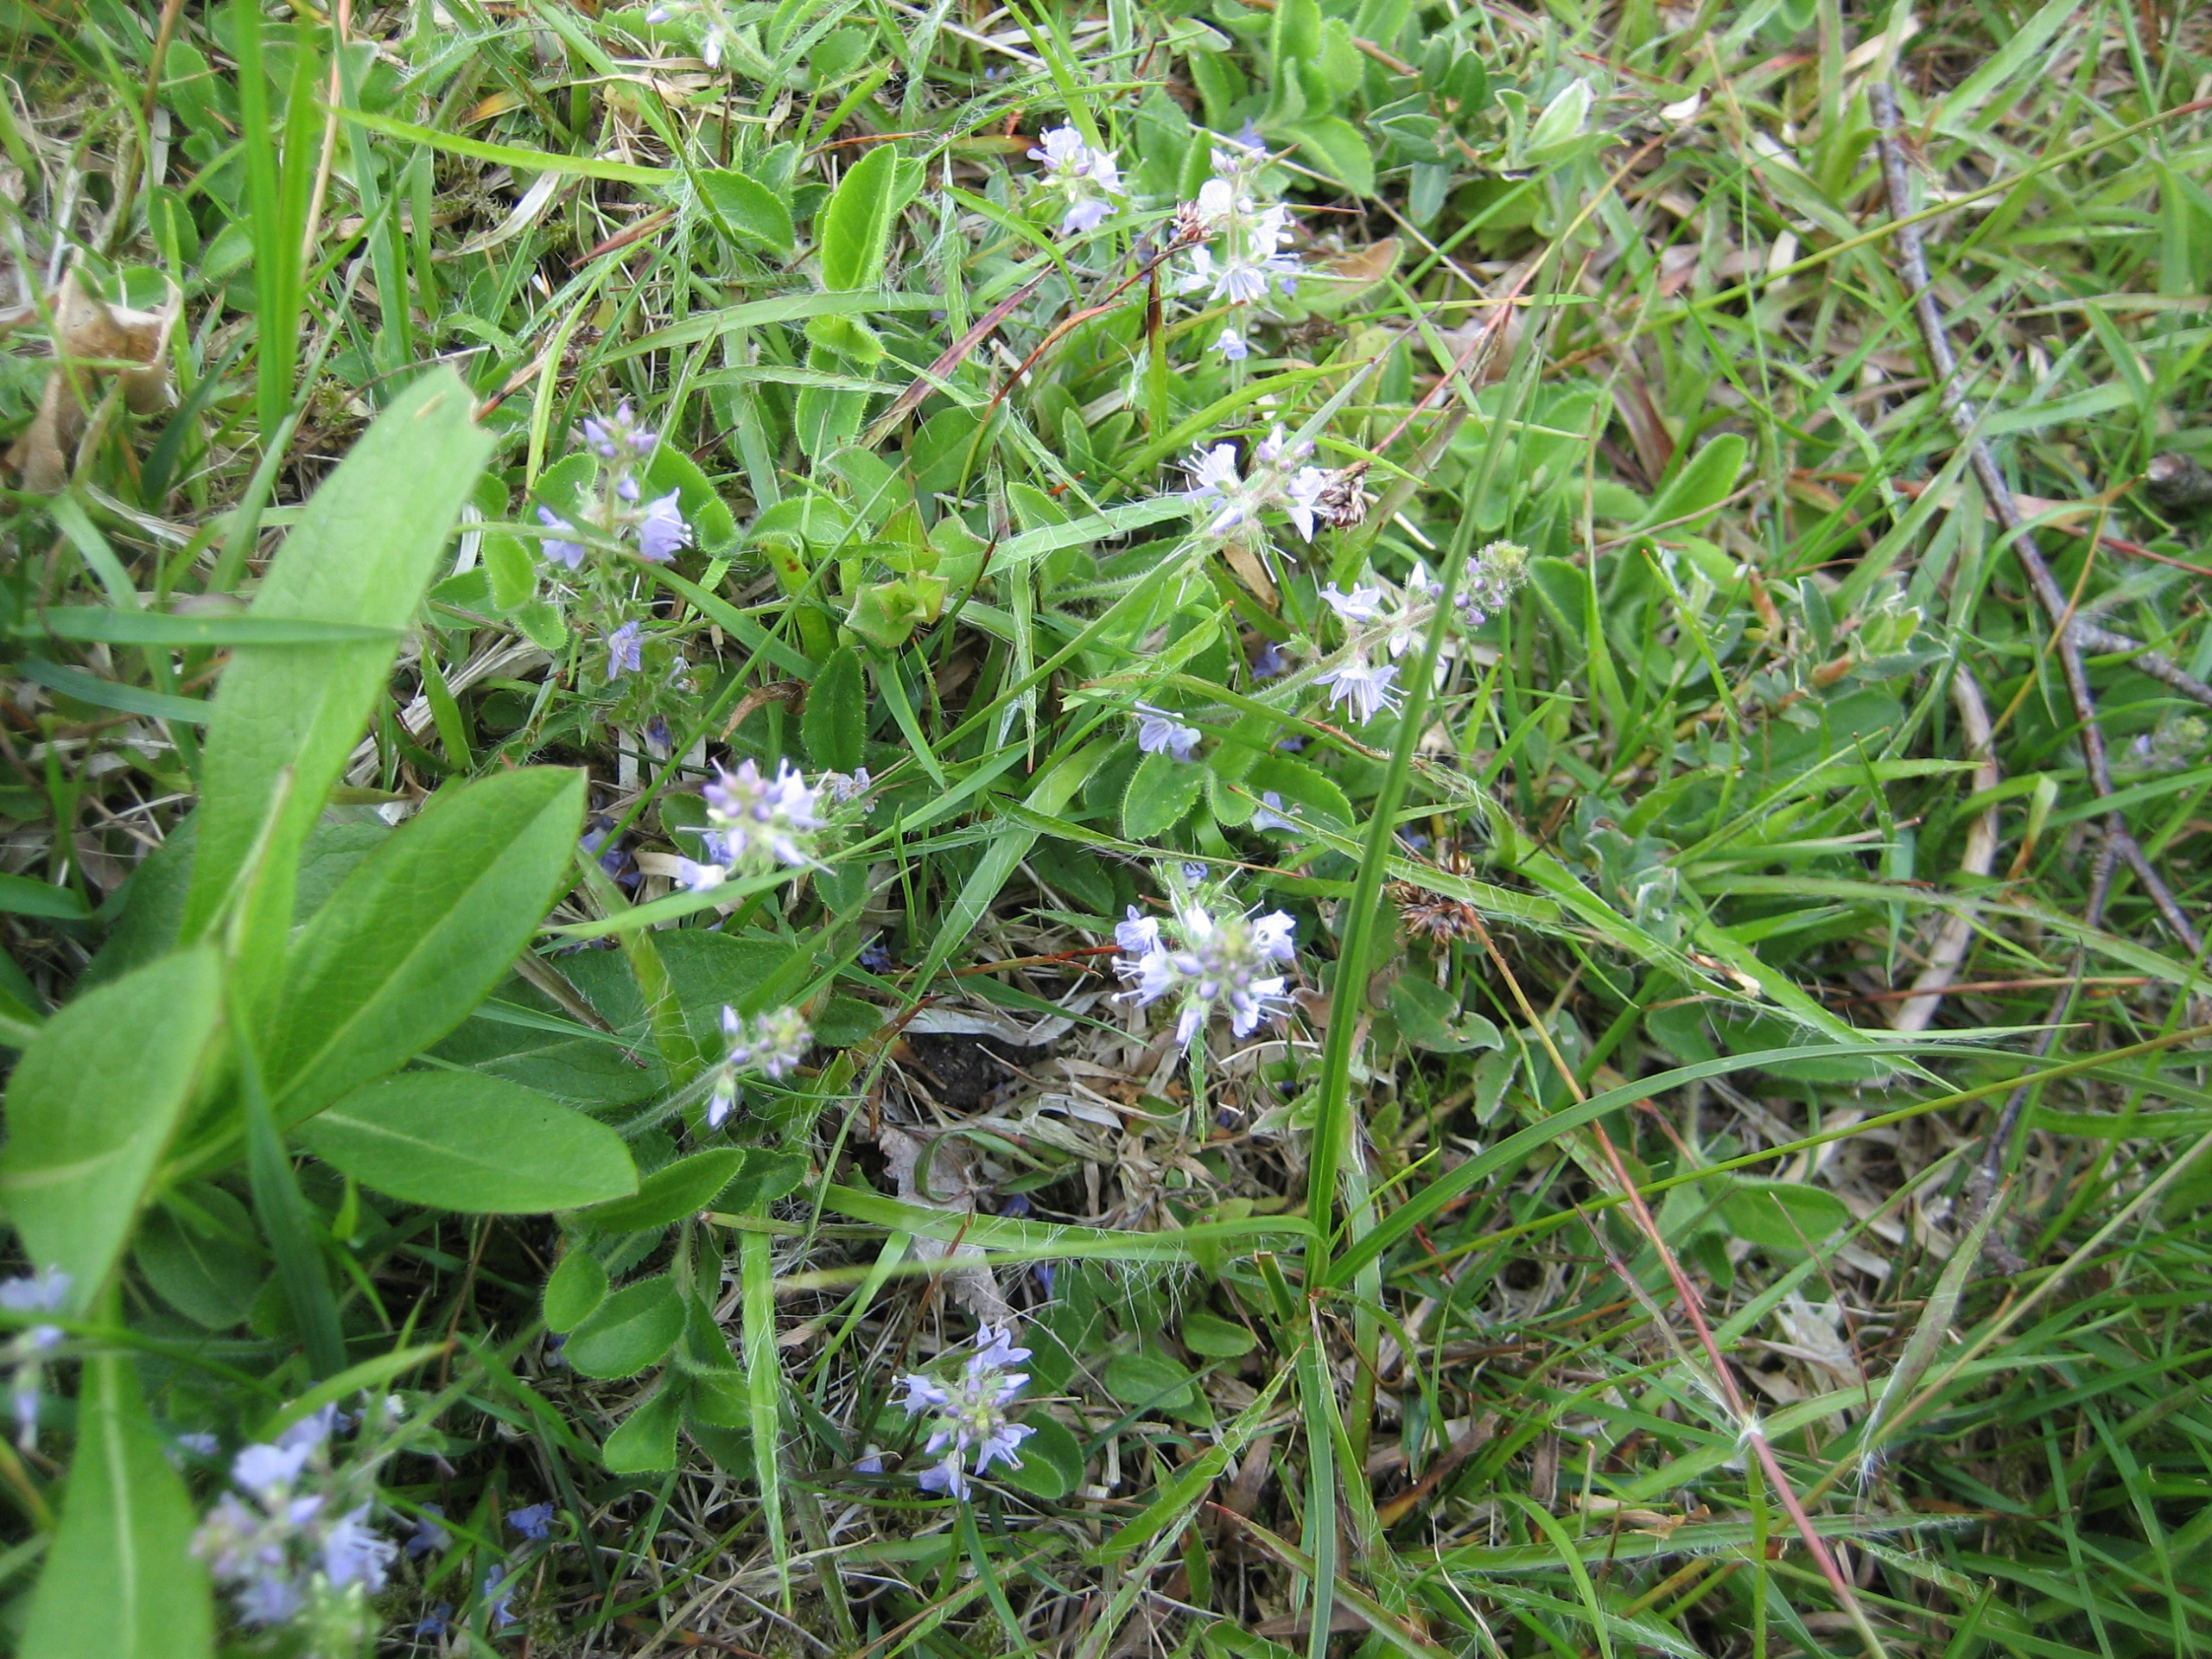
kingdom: Plantae
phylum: Tracheophyta
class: Magnoliopsida
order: Lamiales
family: Plantaginaceae
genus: Veronica
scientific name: Veronica officinalis
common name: Læge-ærenpris
